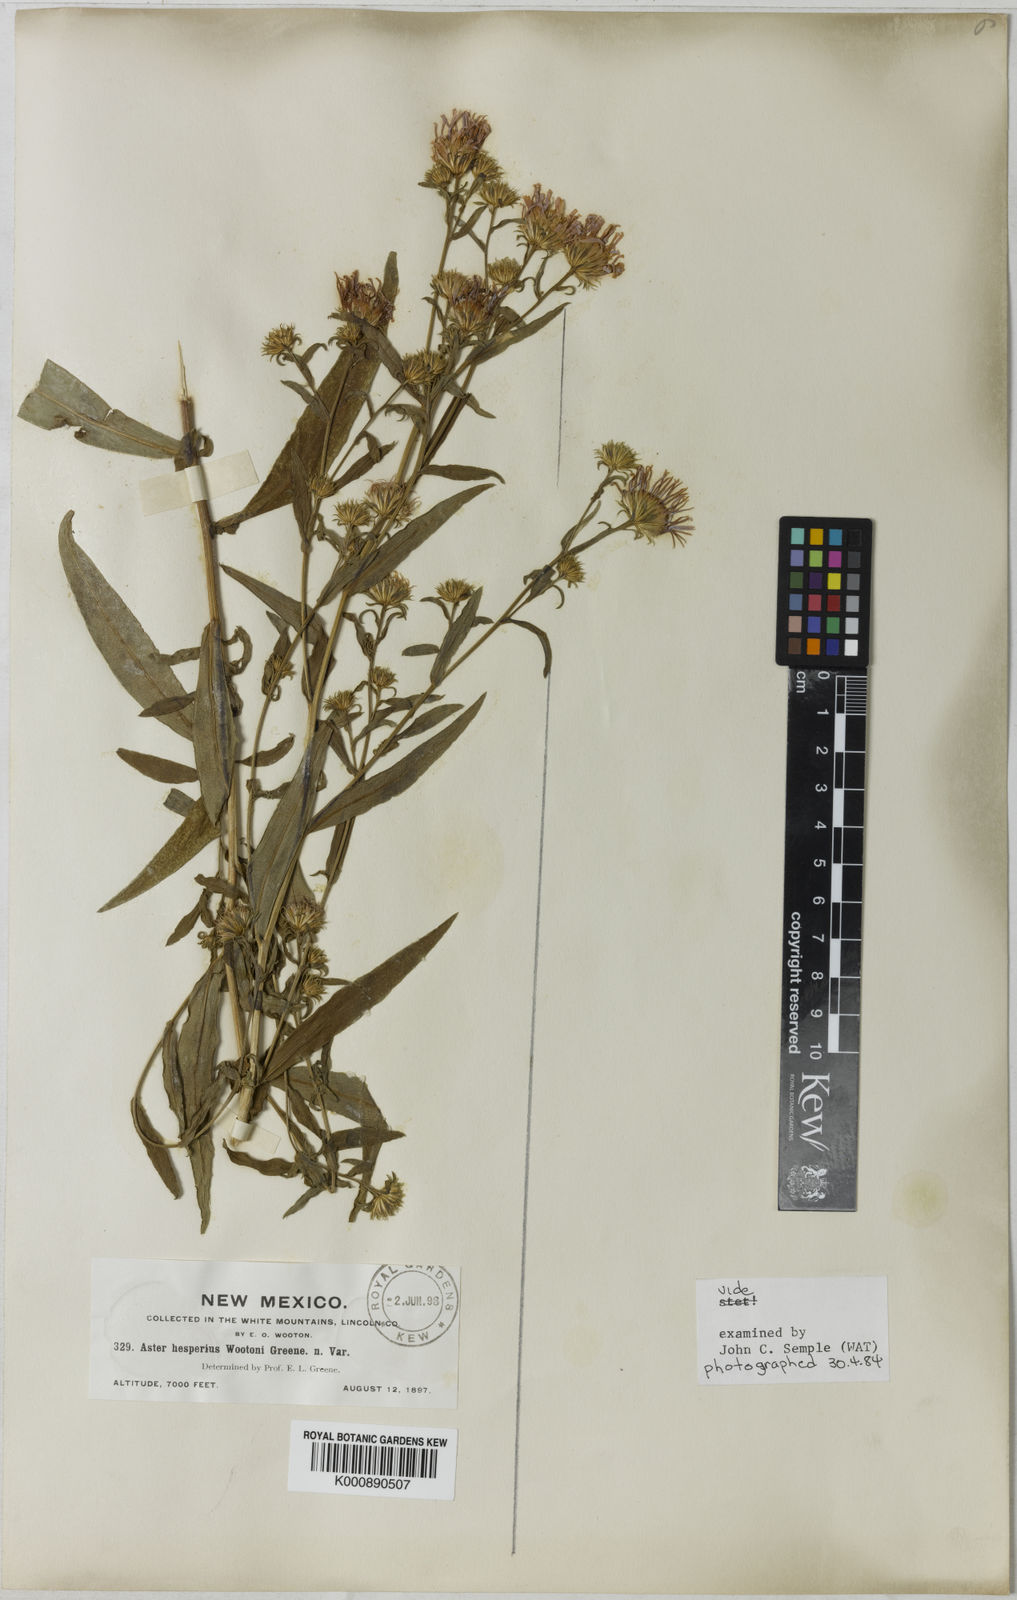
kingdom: Plantae
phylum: Tracheophyta
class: Magnoliopsida
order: Asterales
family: Asteraceae
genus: Symphyotrichum
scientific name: Symphyotrichum lanceolatum
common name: Panicled aster
